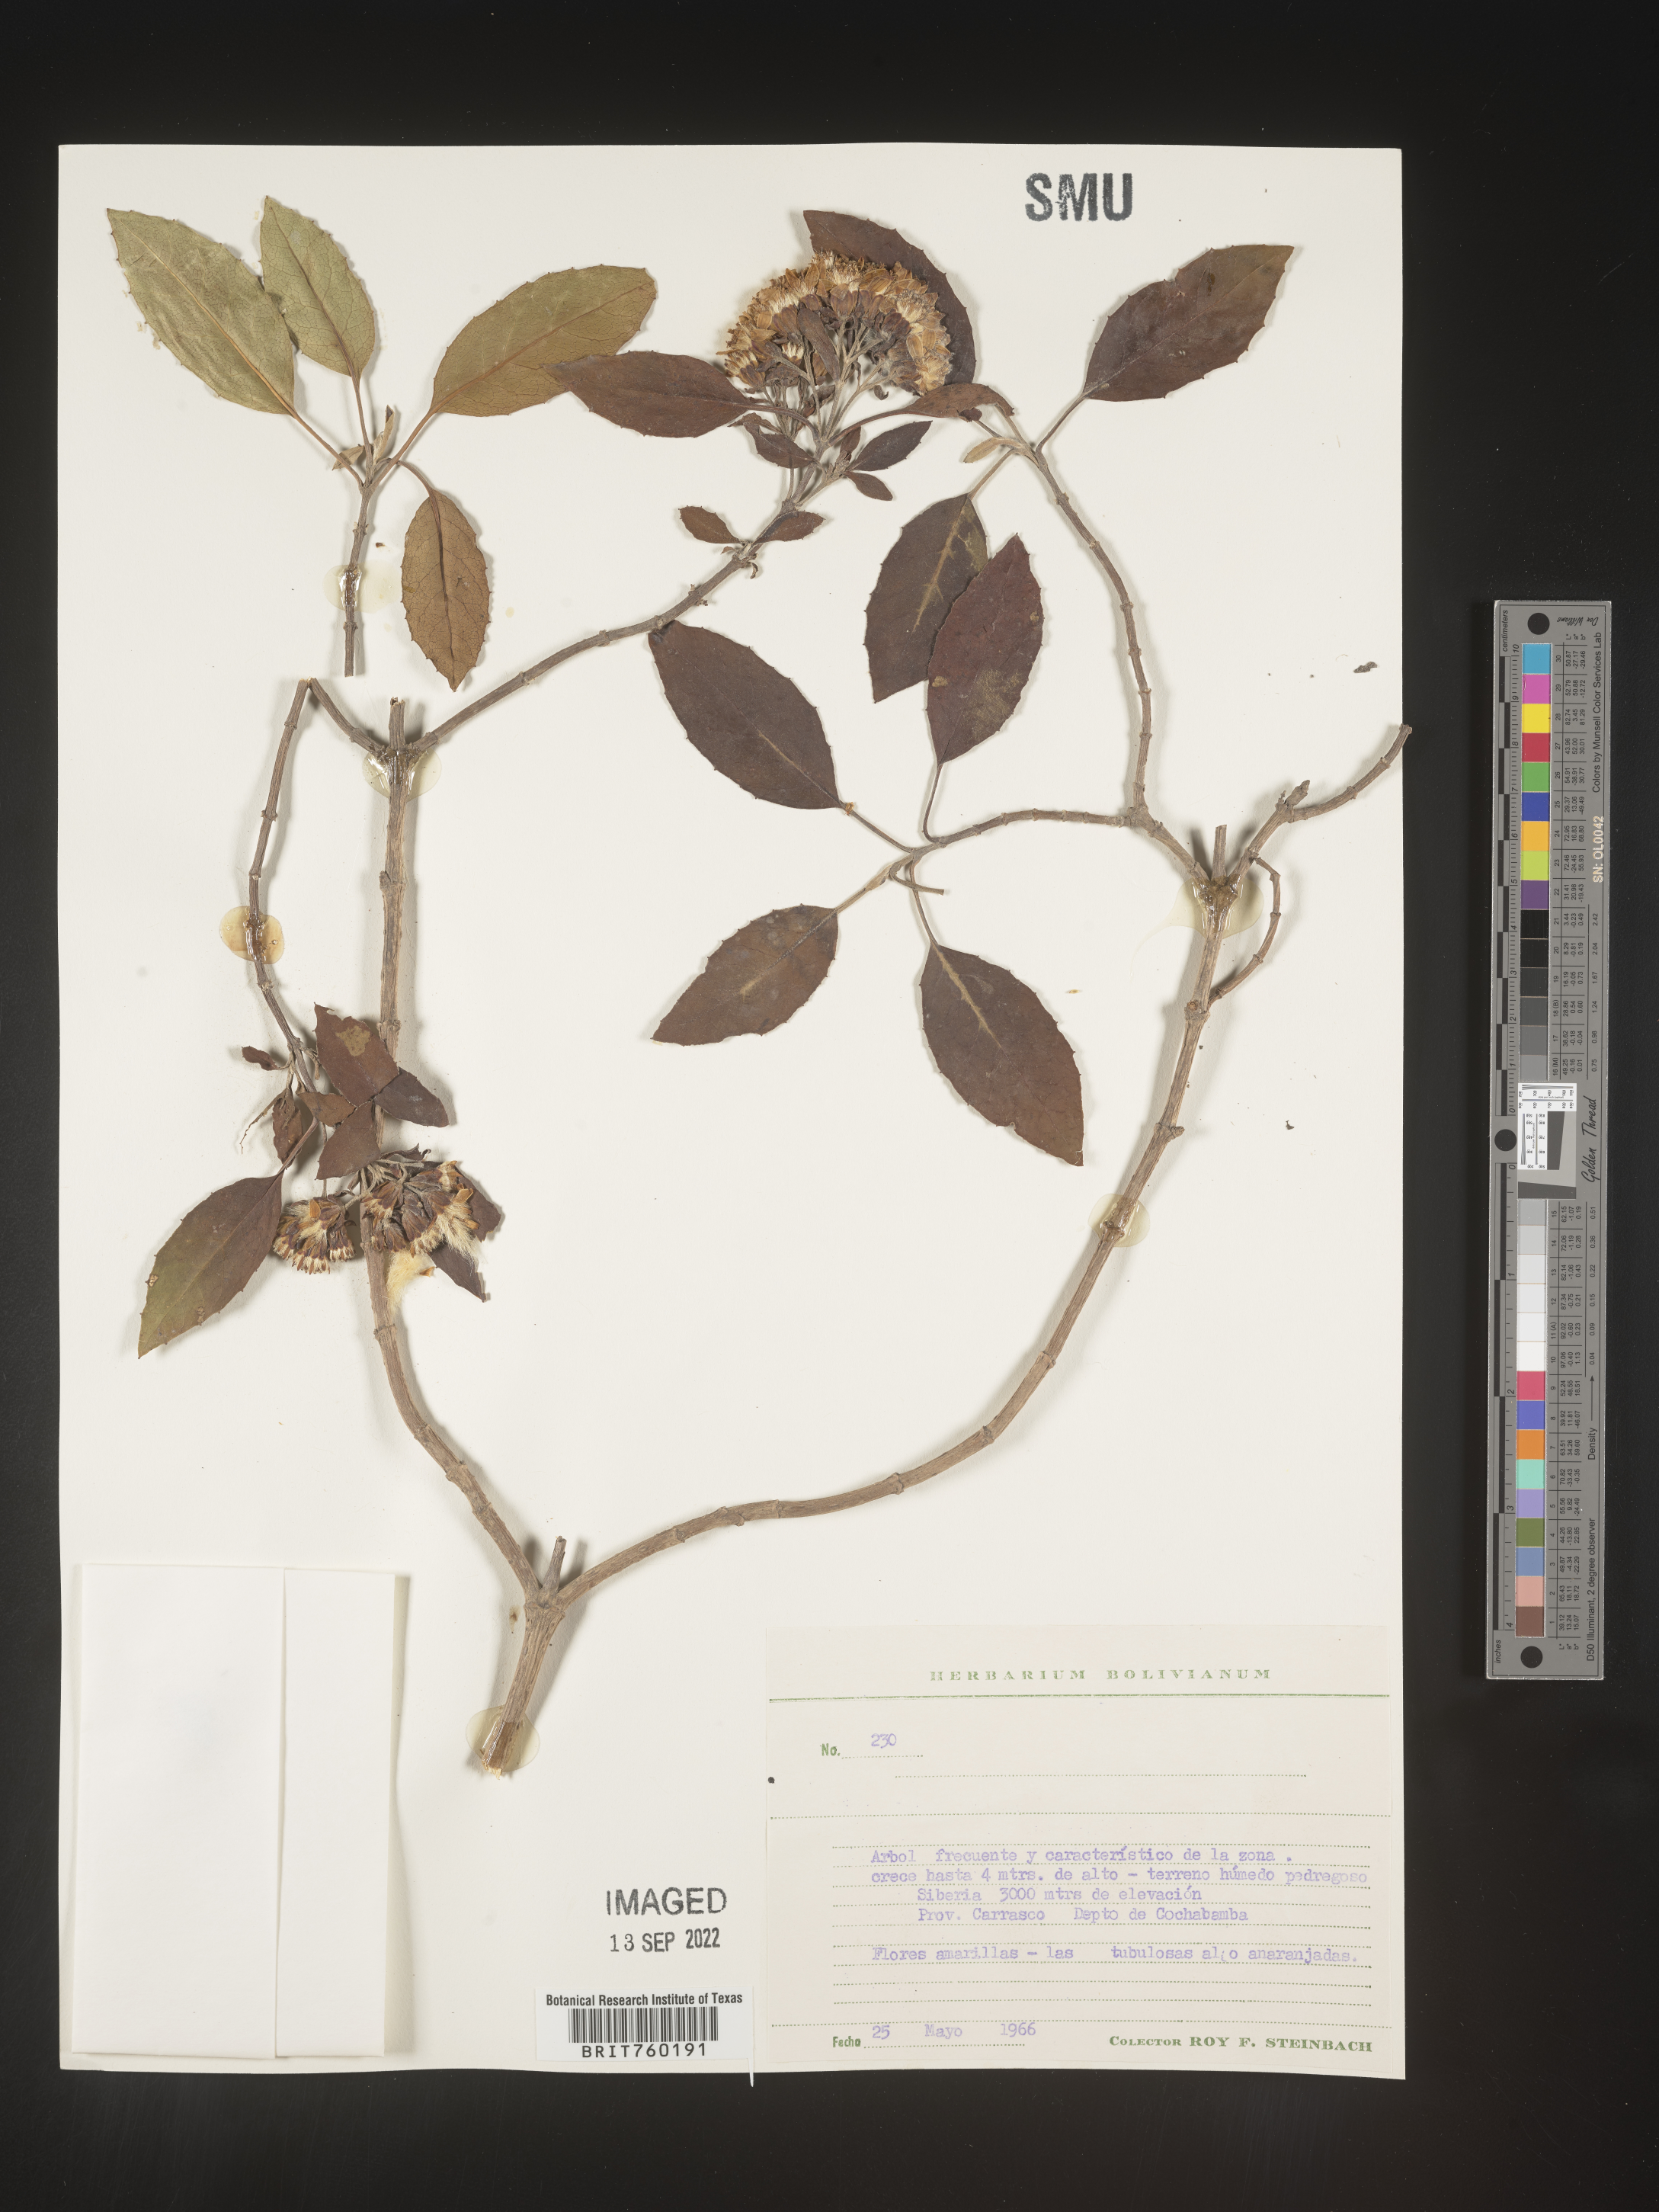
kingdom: Plantae
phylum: Tracheophyta
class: Magnoliopsida
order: Asterales
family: Asteraceae
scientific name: Asteraceae
